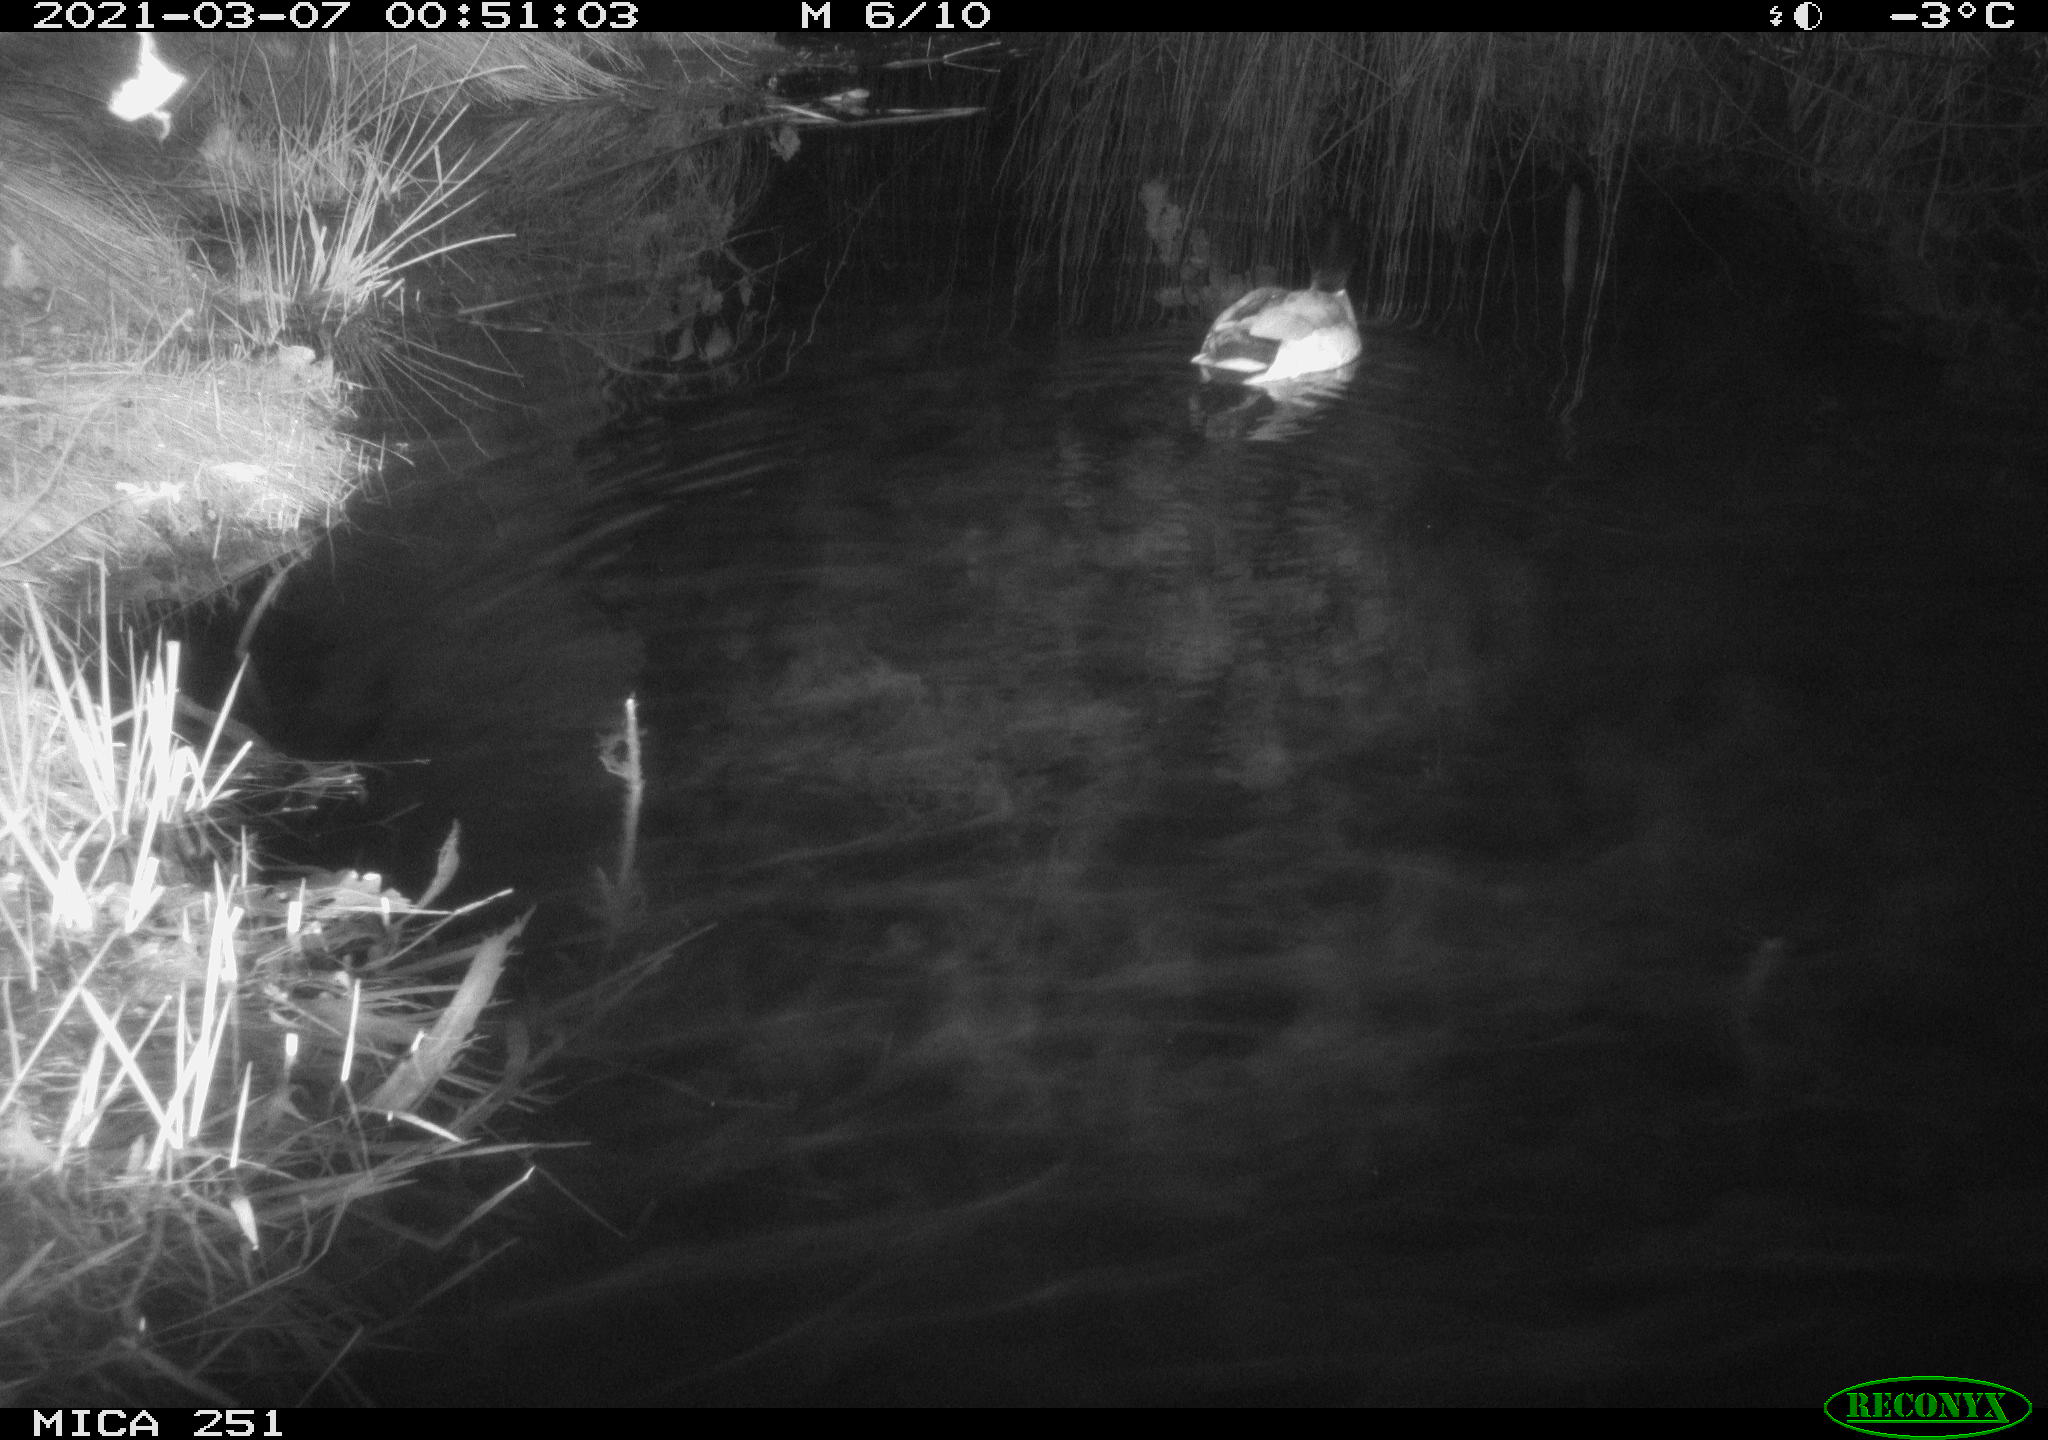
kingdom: Animalia
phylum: Chordata
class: Aves
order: Anseriformes
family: Anatidae
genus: Anas
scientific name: Anas platyrhynchos
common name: Mallard
